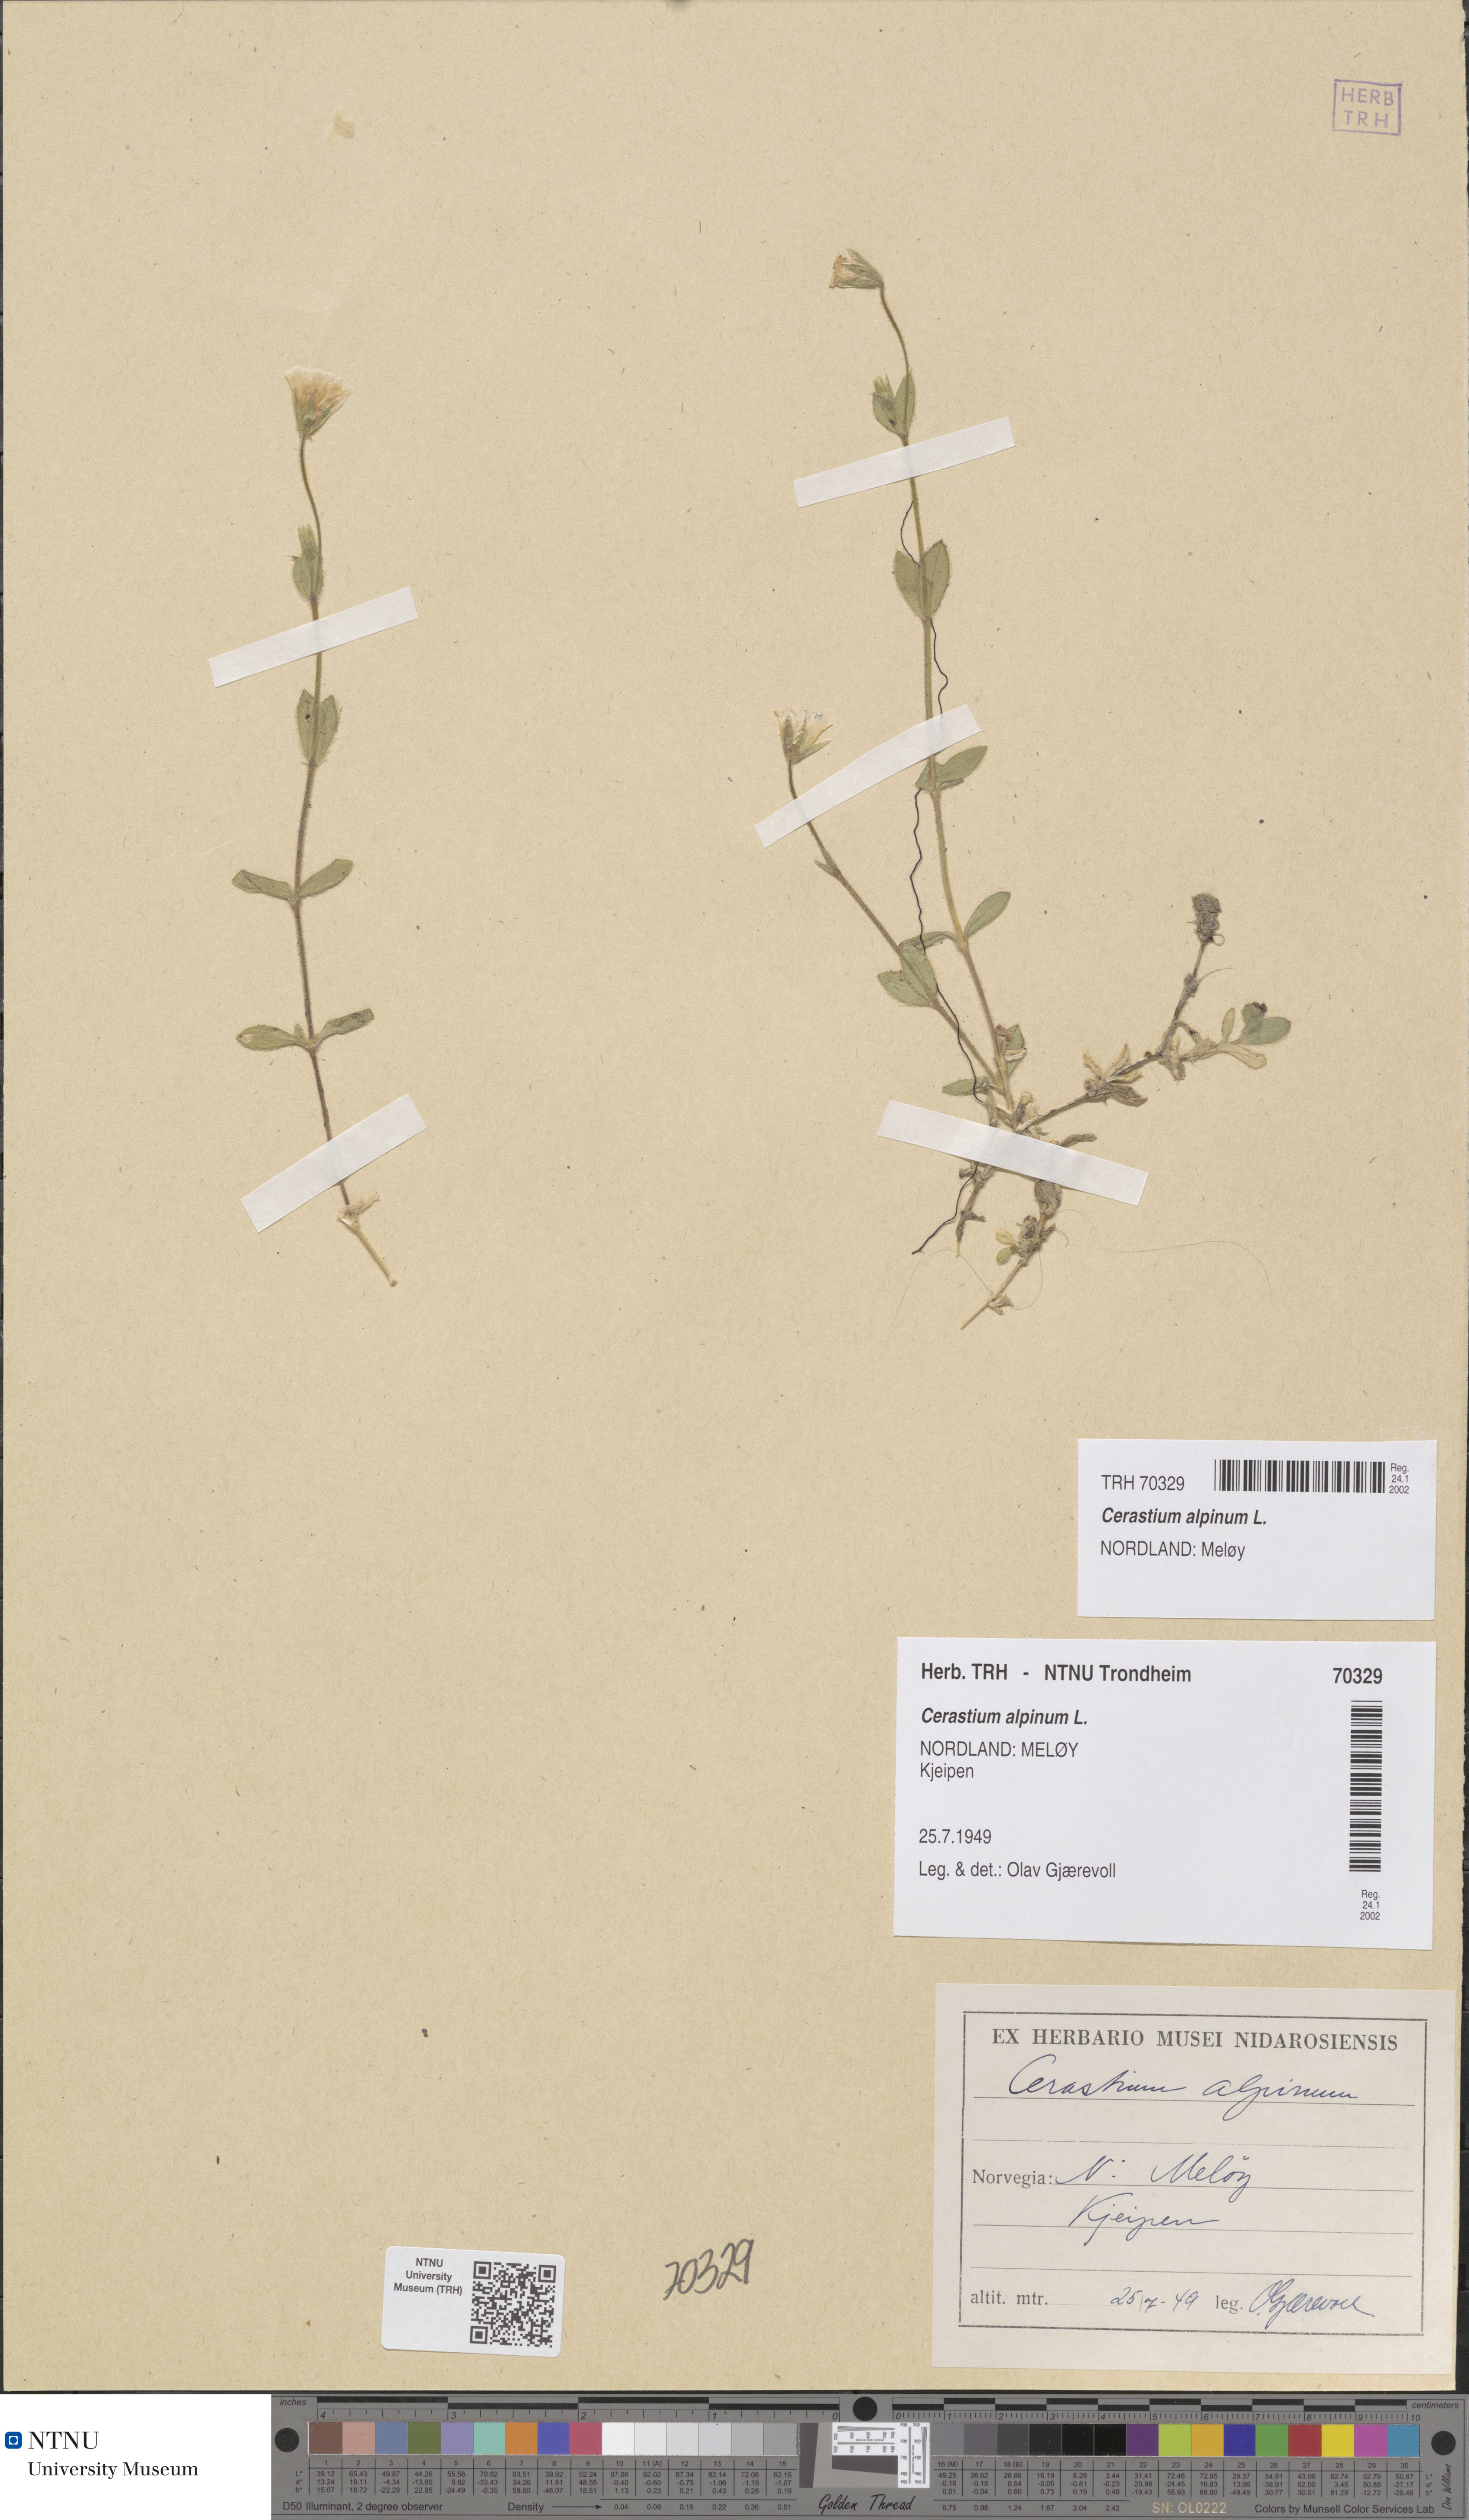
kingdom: Plantae
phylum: Tracheophyta
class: Magnoliopsida
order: Caryophyllales
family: Caryophyllaceae
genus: Cerastium
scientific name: Cerastium alpinum
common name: Alpine mouse-ear
